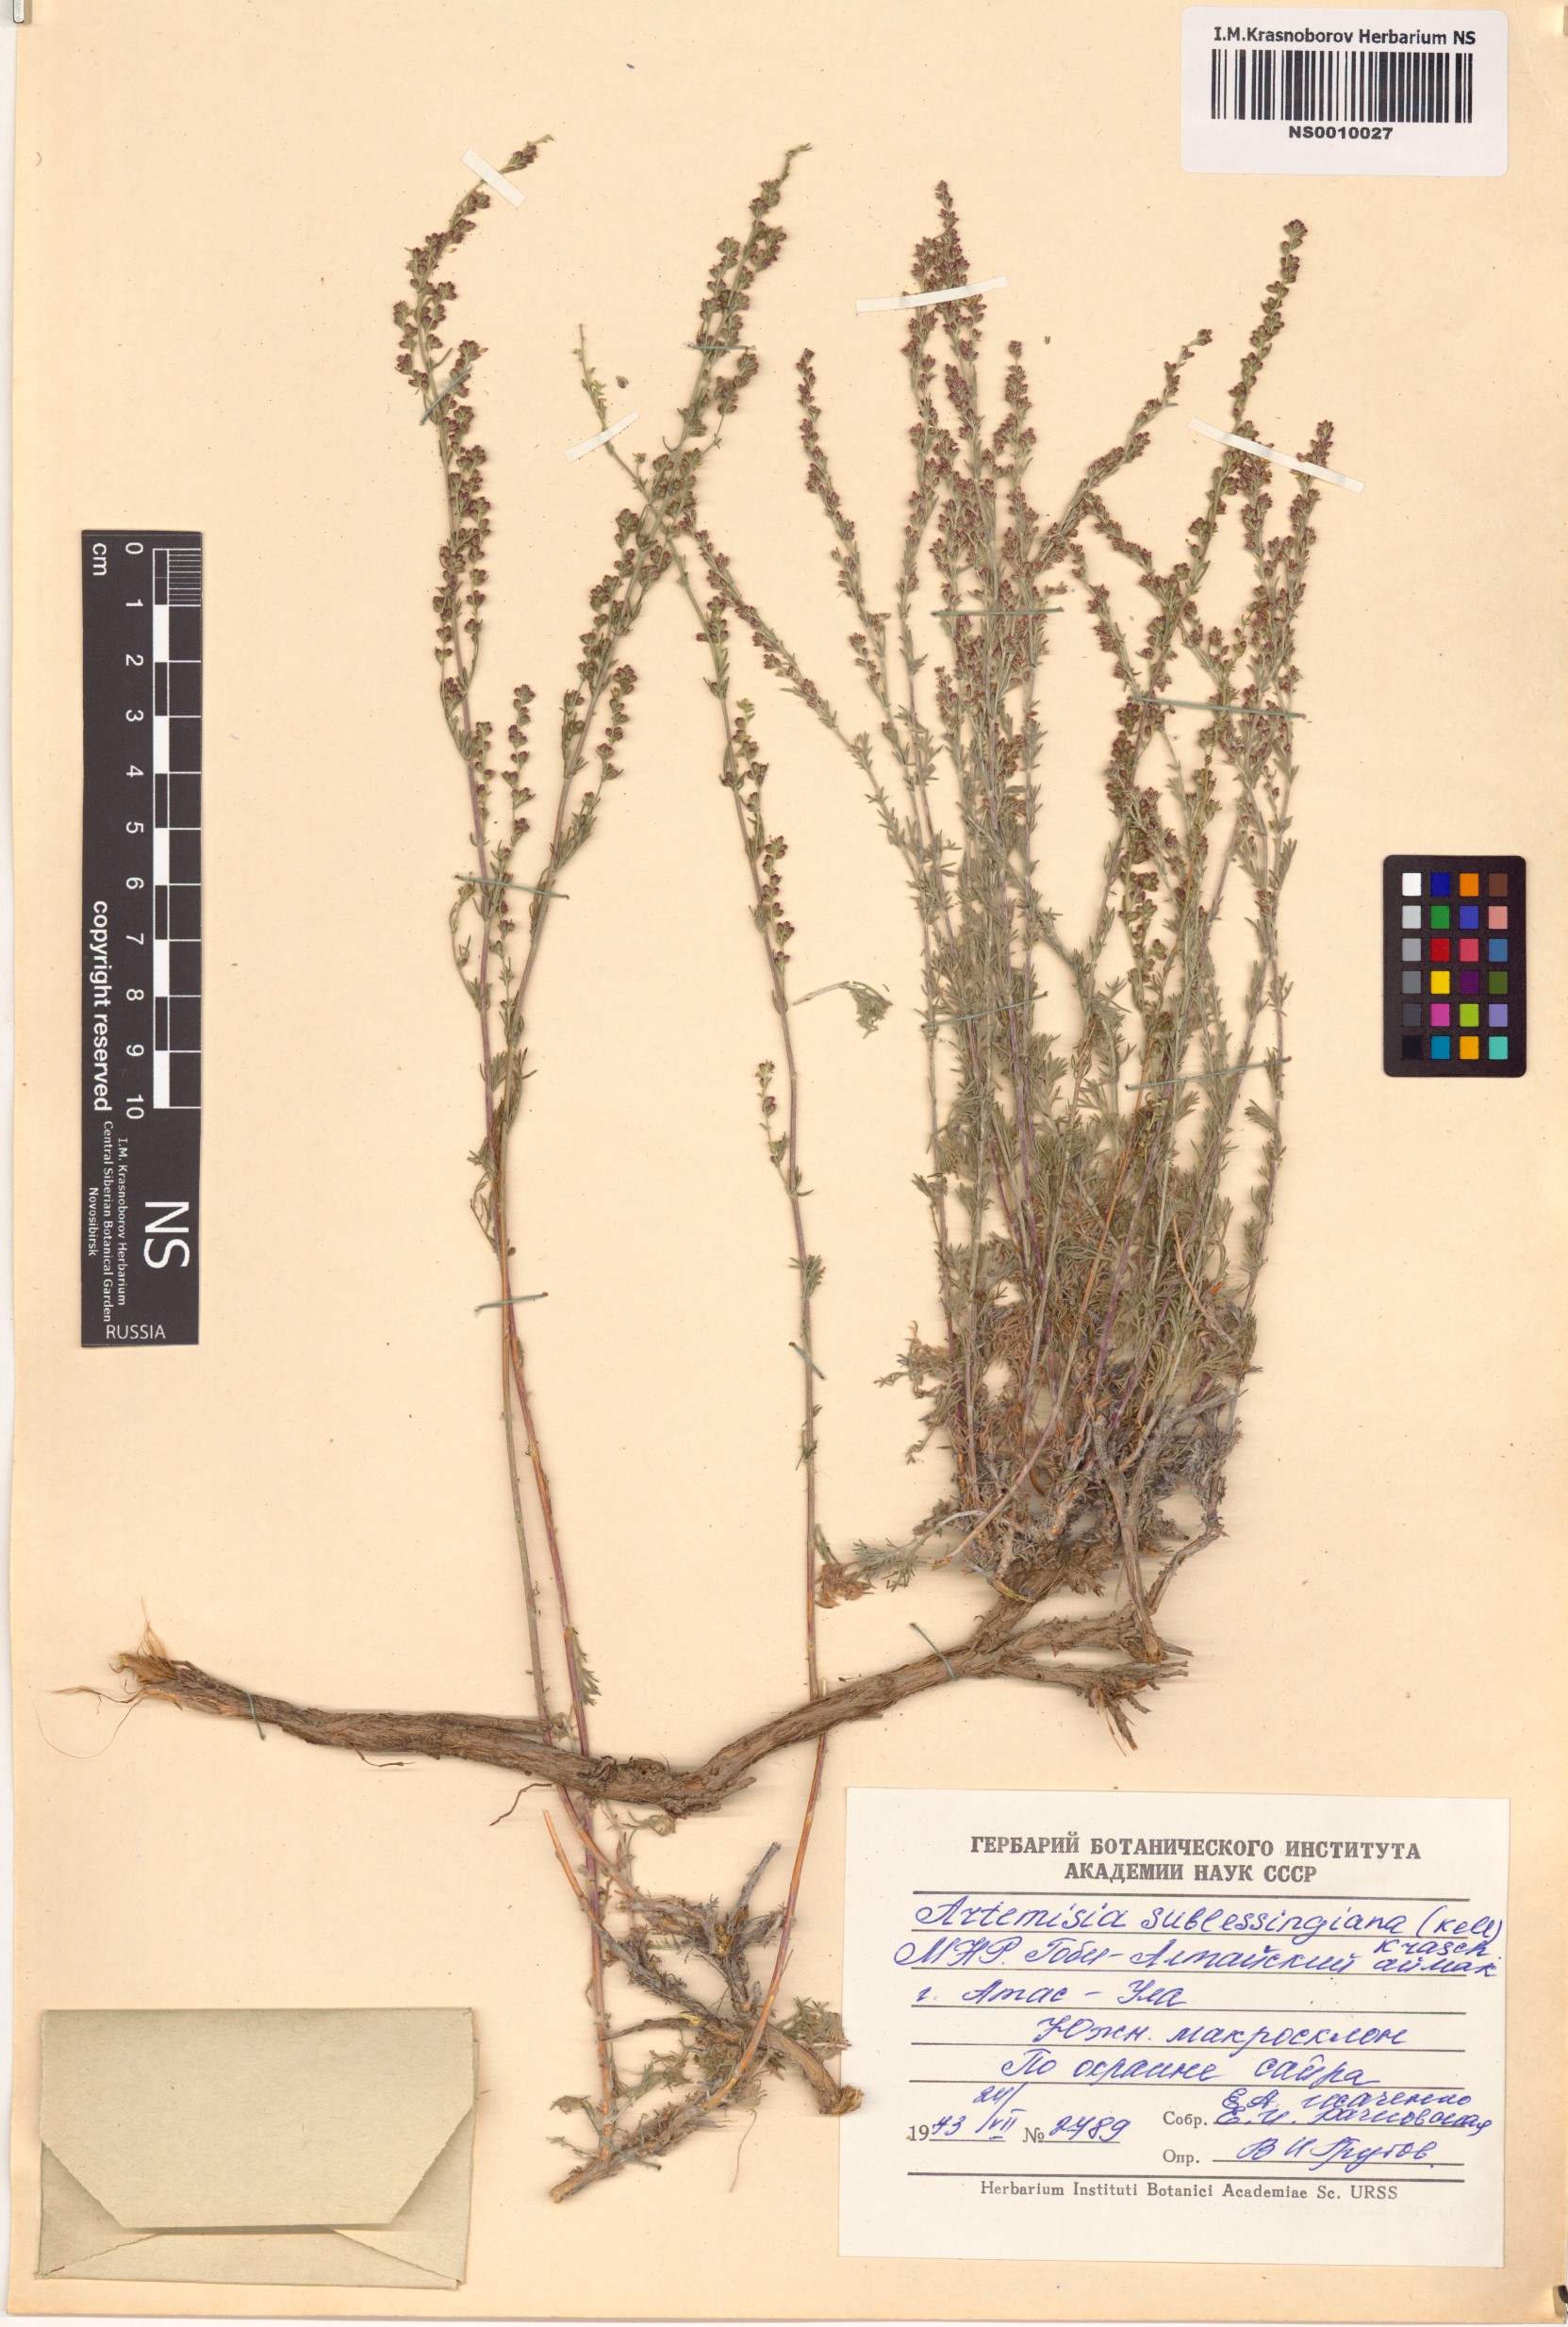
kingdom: Plantae
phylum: Tracheophyta
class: Magnoliopsida
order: Asterales
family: Asteraceae
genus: Artemisia
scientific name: Artemisia sublessingiana
